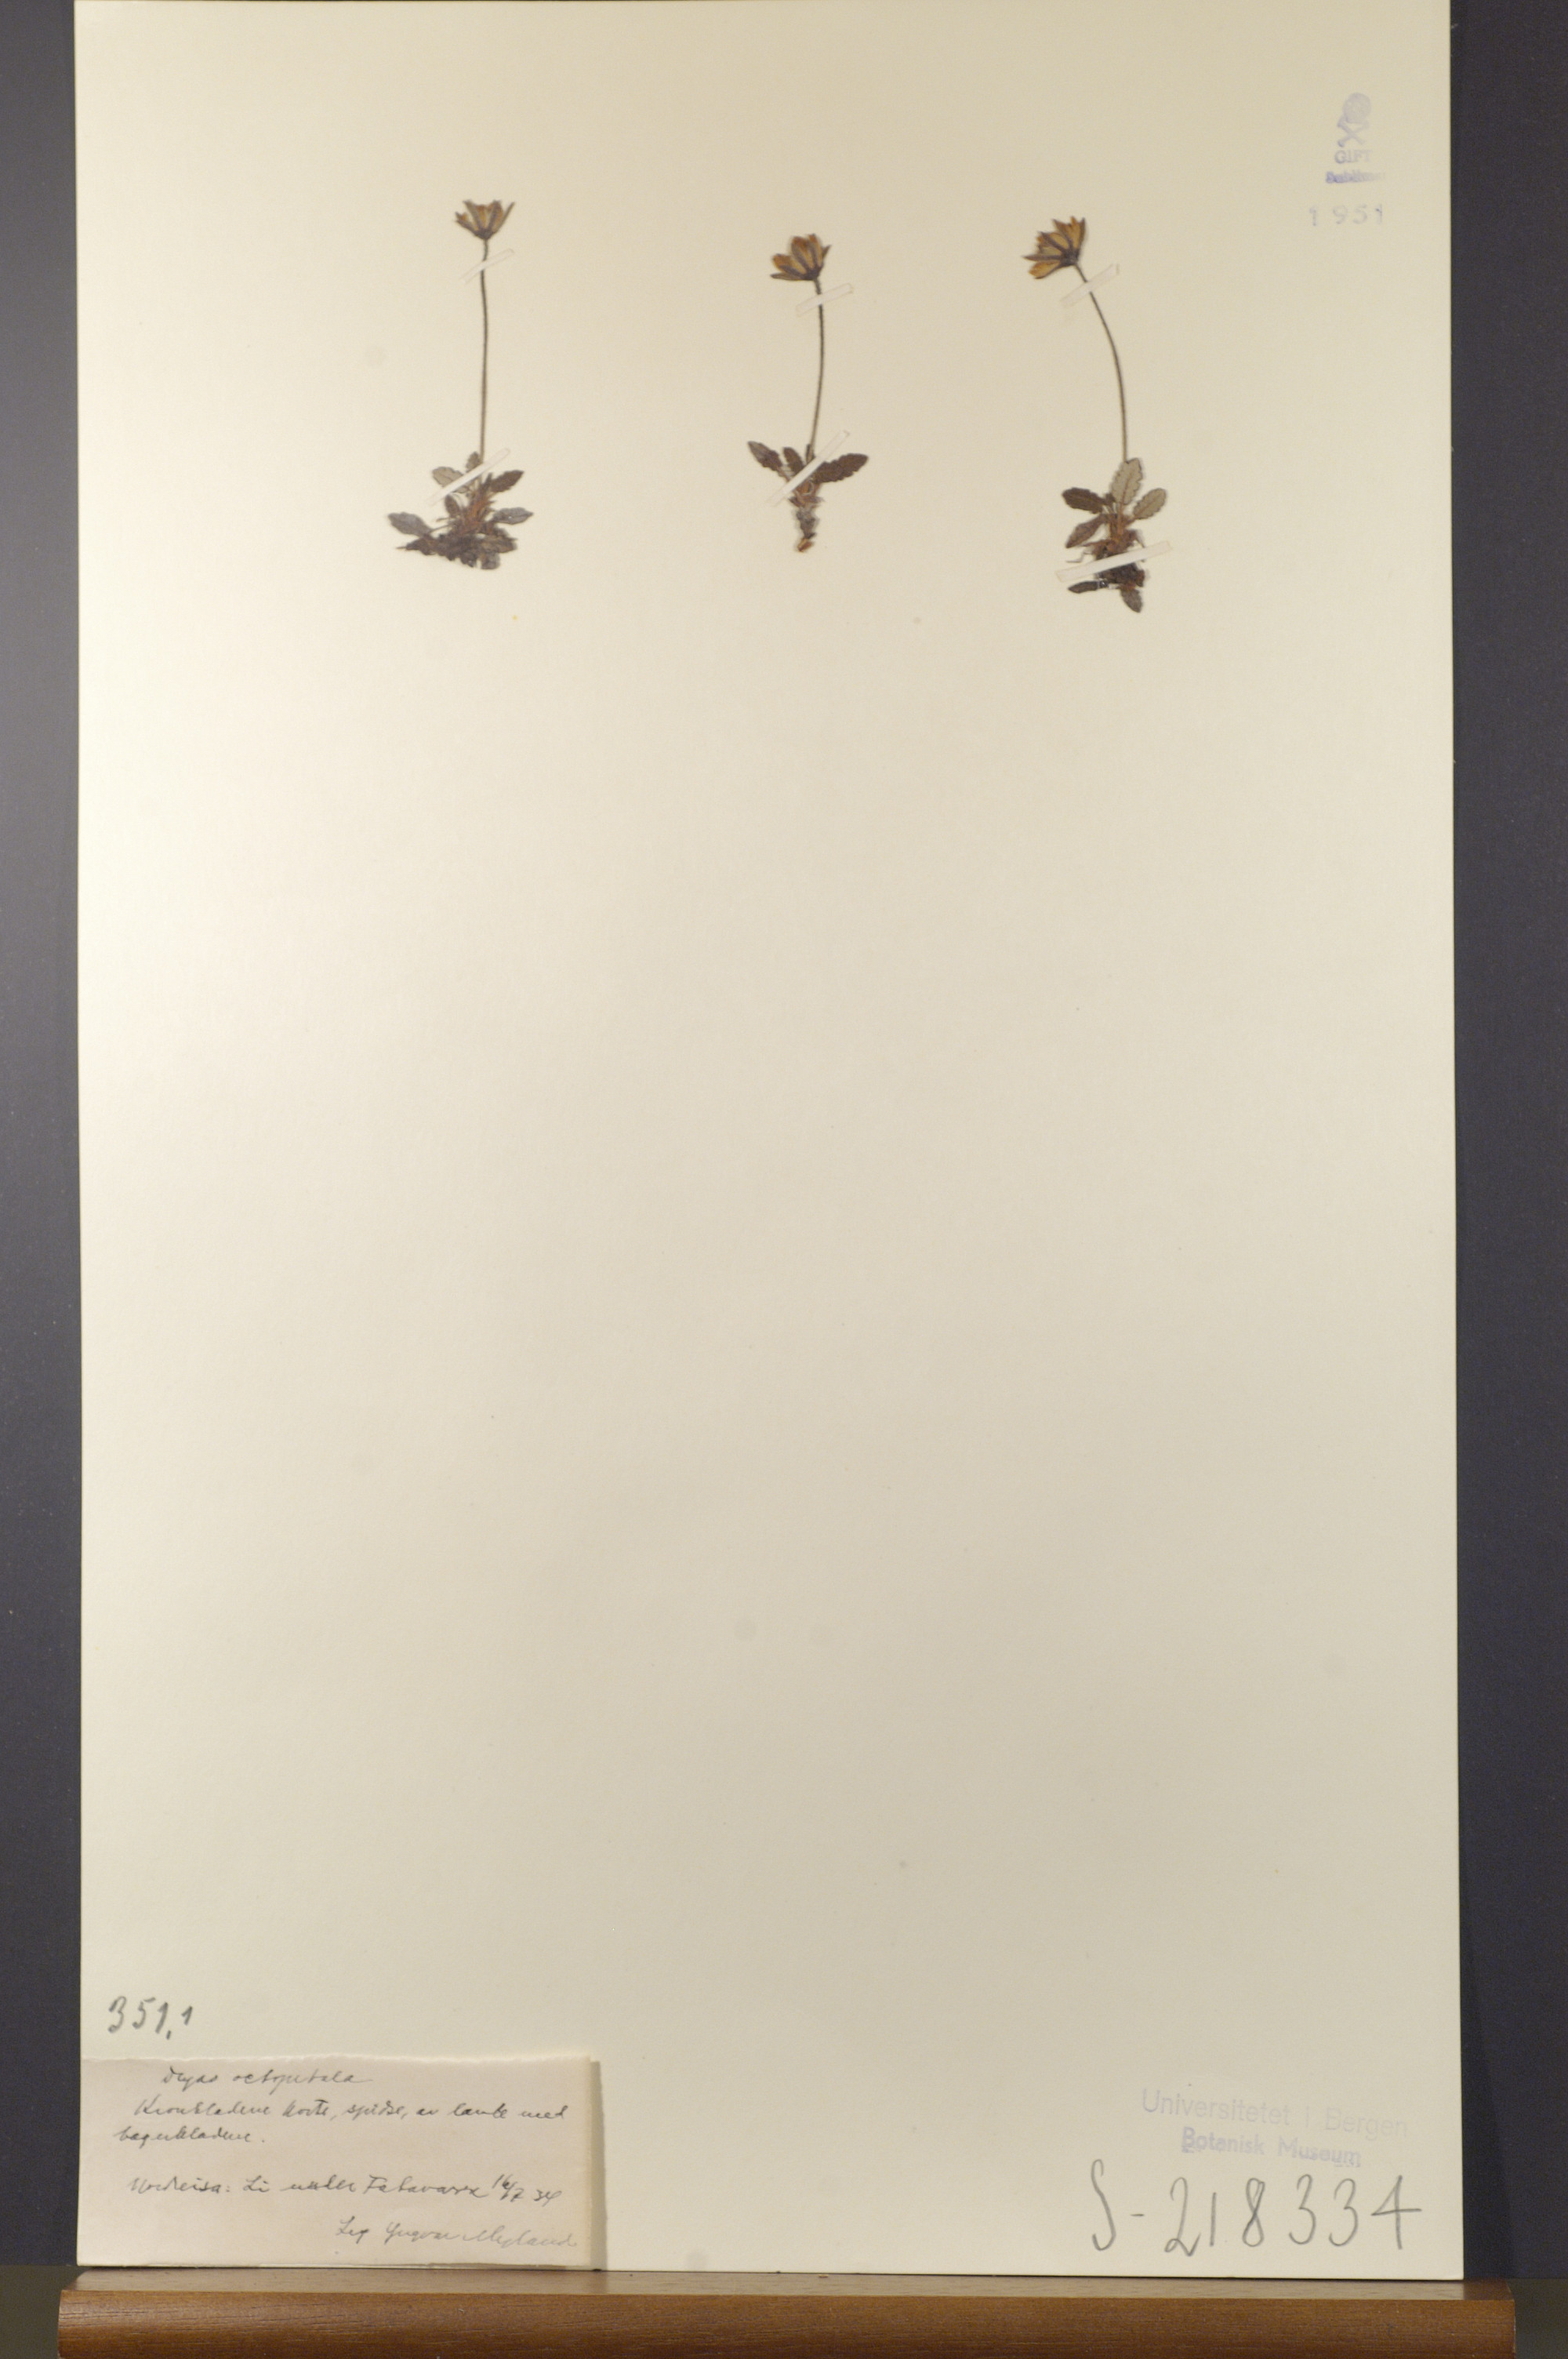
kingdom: Plantae
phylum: Tracheophyta
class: Magnoliopsida
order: Rosales
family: Rosaceae
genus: Dryas
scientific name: Dryas octopetala
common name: Eight-petal mountain-avens
